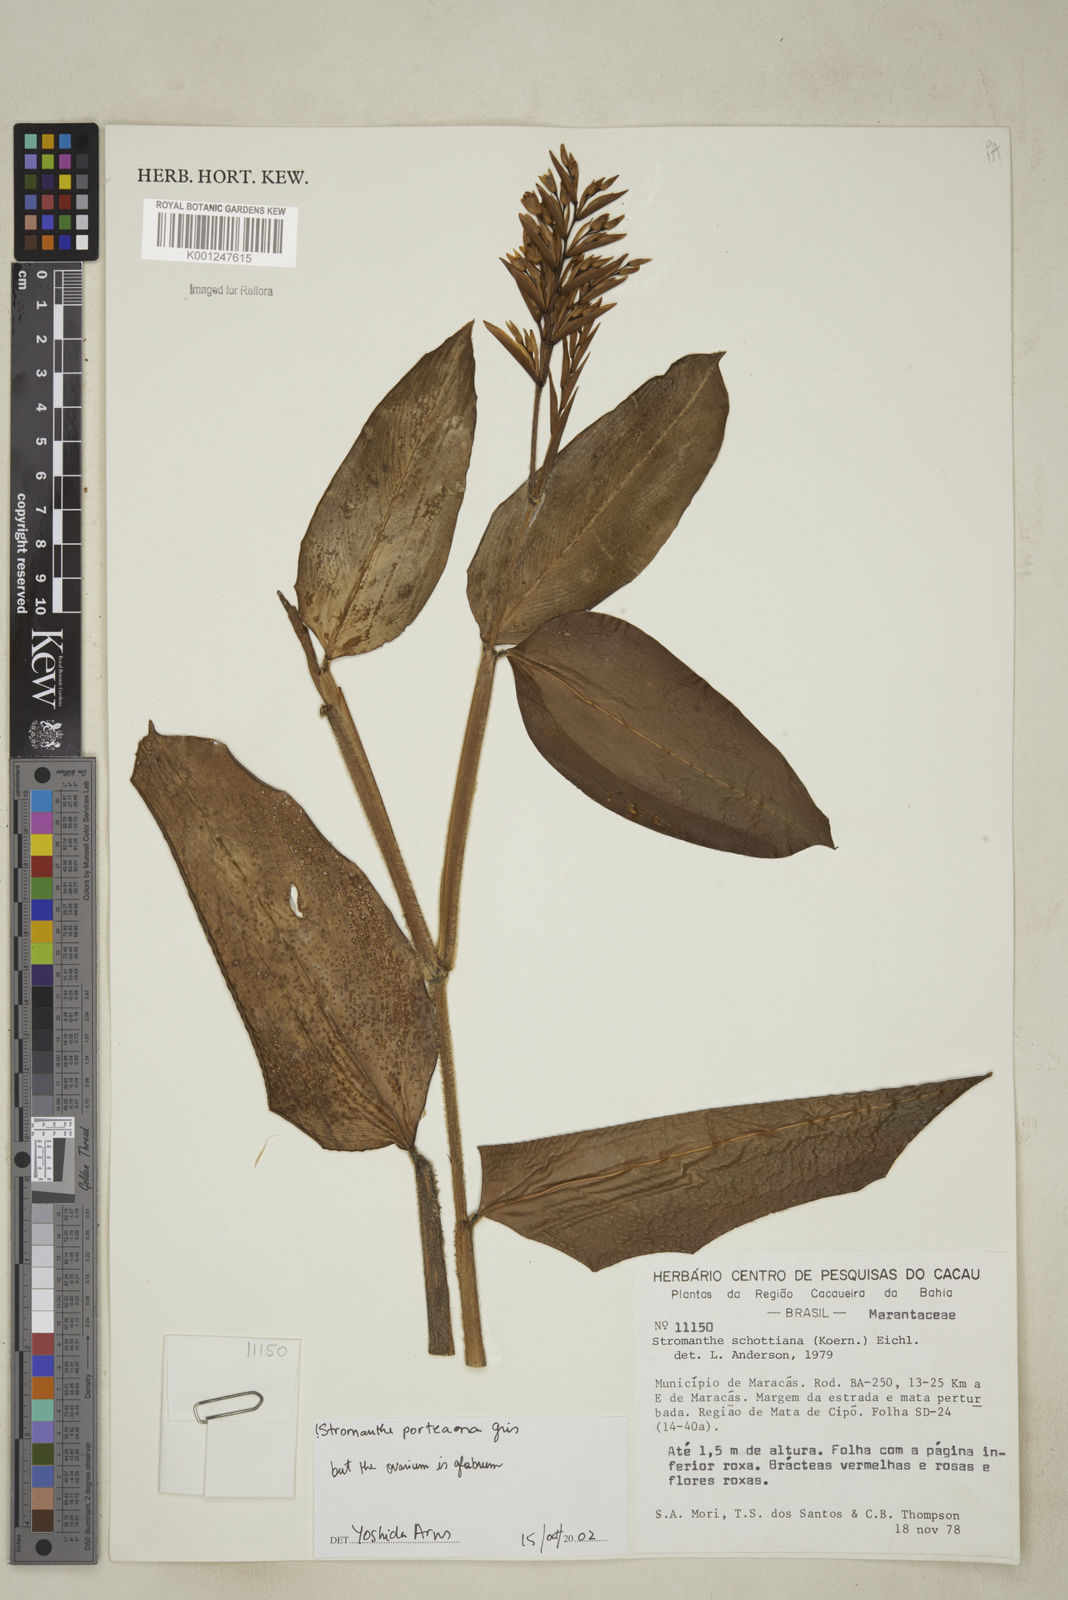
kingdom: Plantae
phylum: Tracheophyta
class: Liliopsida
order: Zingiberales
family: Marantaceae
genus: Stromanthe
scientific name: Stromanthe porteana
